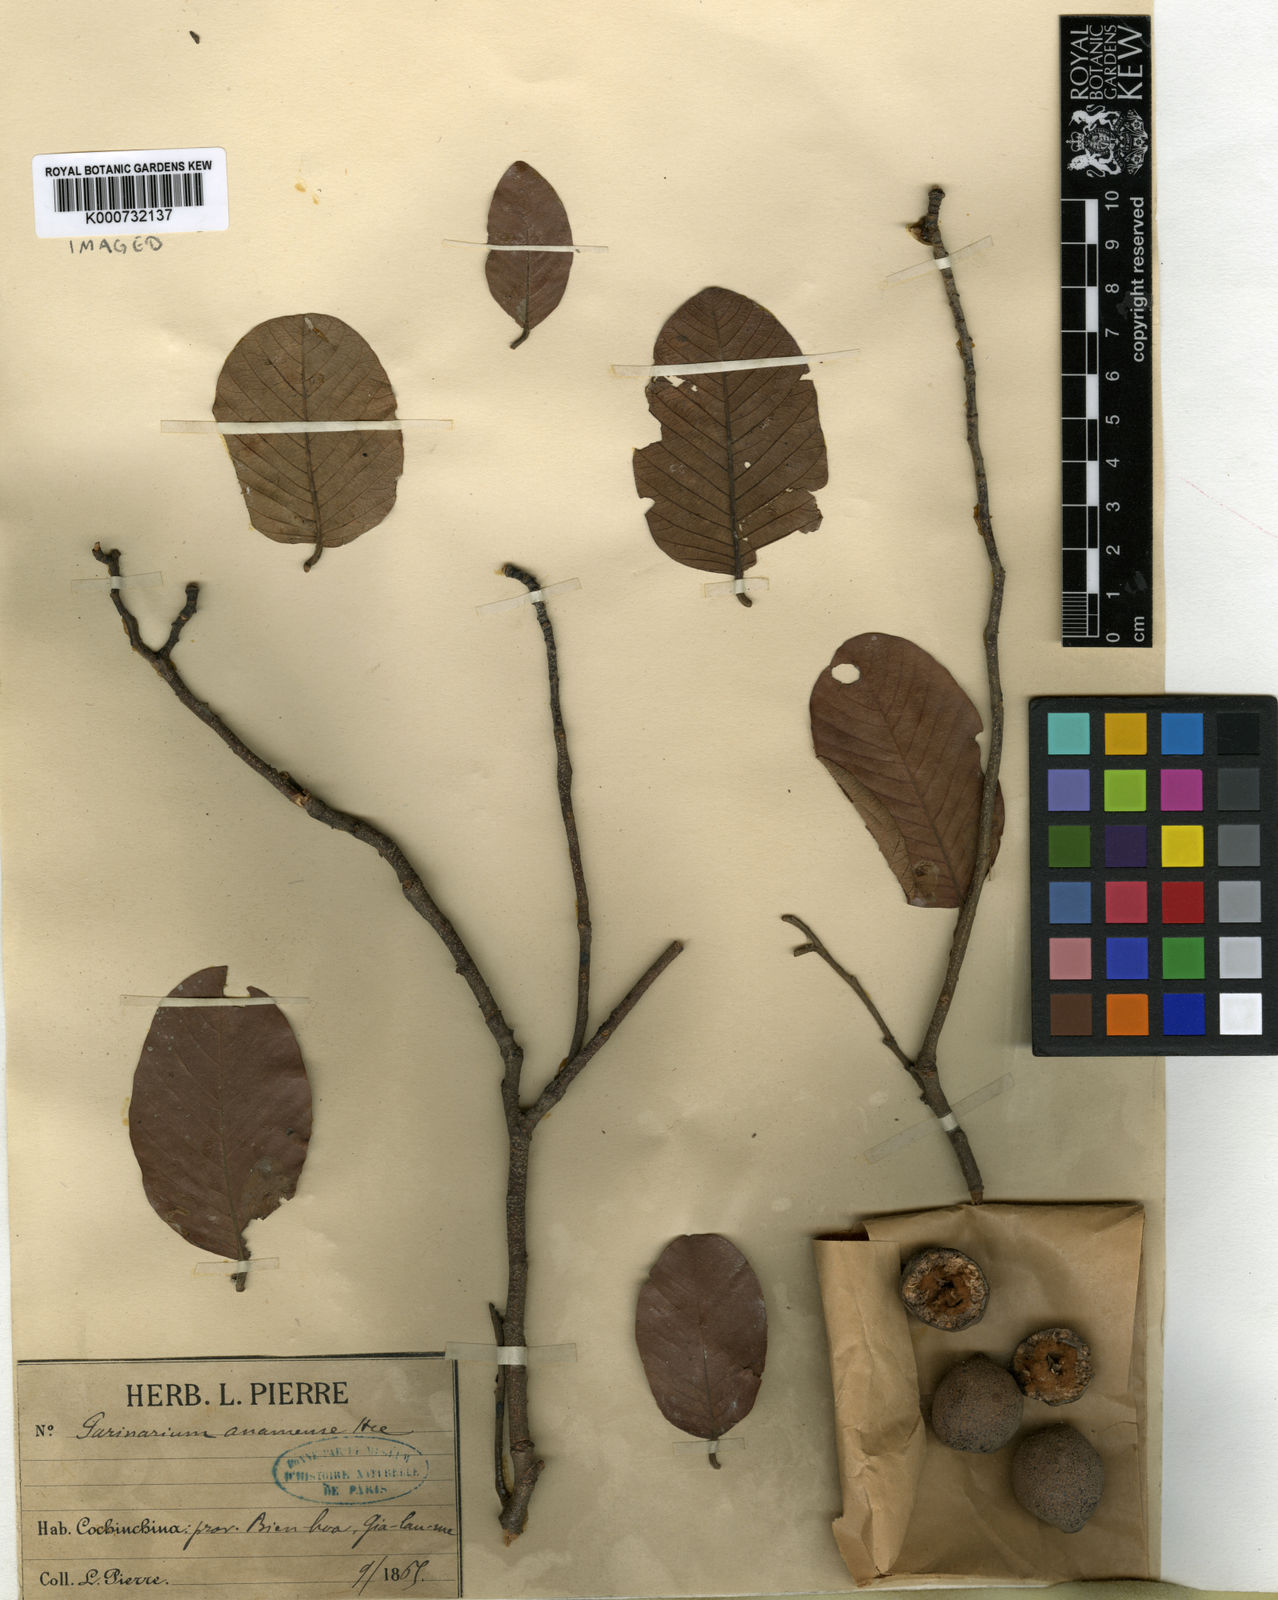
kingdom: Plantae
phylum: Tracheophyta
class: Magnoliopsida
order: Malpighiales
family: Chrysobalanaceae
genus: Parinari
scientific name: Parinari anamensis
